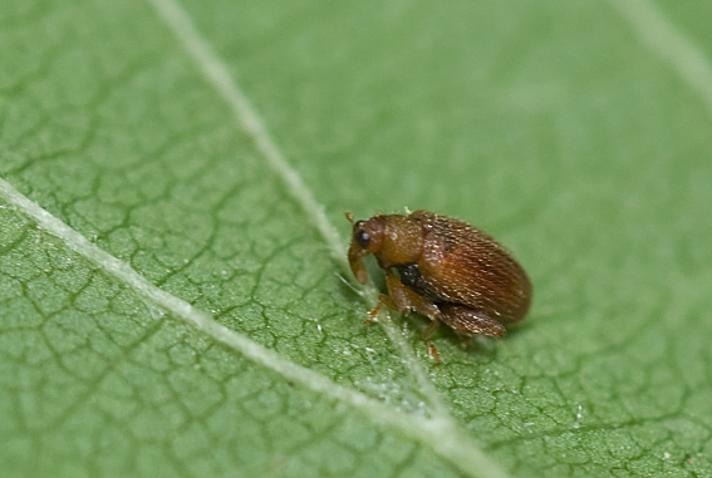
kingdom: Animalia
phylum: Arthropoda
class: Insecta
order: Coleoptera
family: Curculionidae
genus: Orchestes
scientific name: Orchestes betuleti
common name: Elmeloppe
